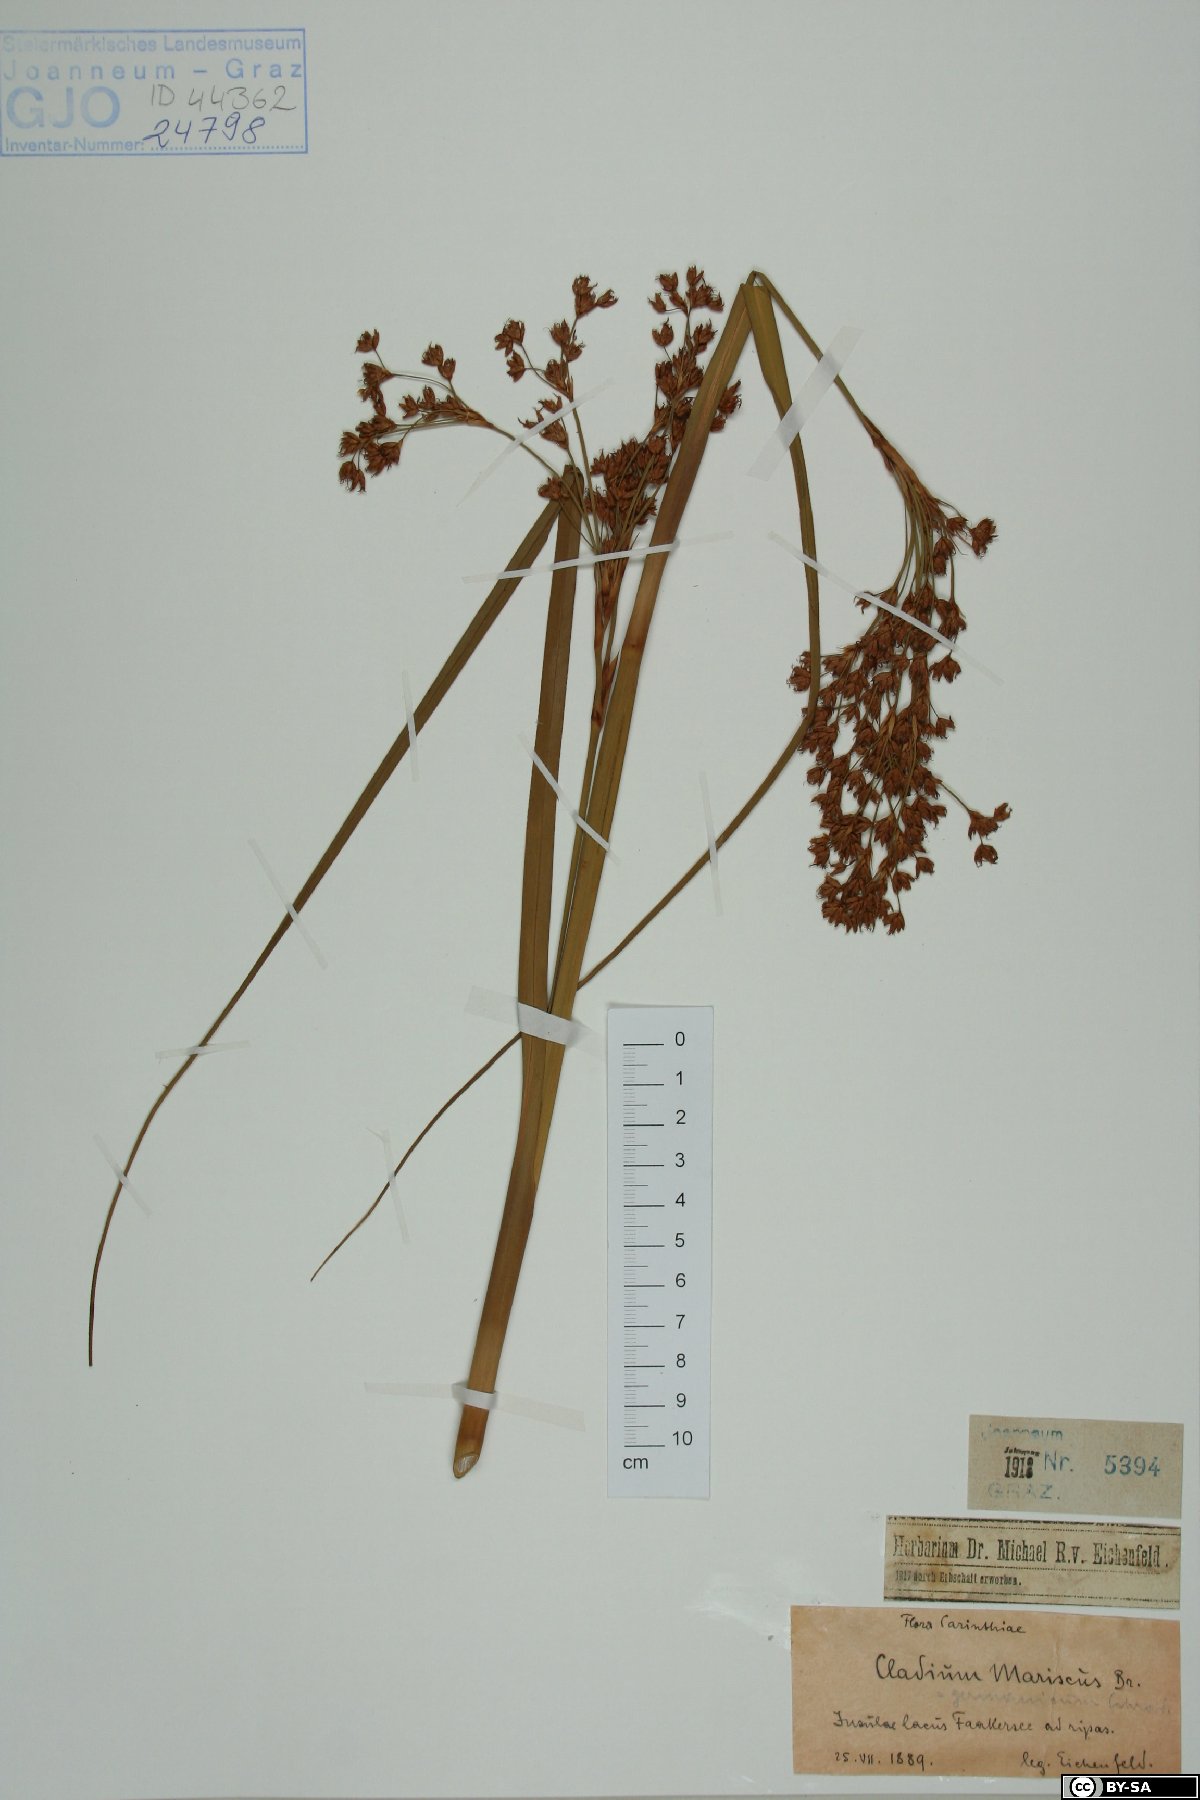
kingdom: Plantae
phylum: Tracheophyta
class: Liliopsida
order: Poales
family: Cyperaceae
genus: Cladium
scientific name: Cladium mariscus
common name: Great fen-sedge
